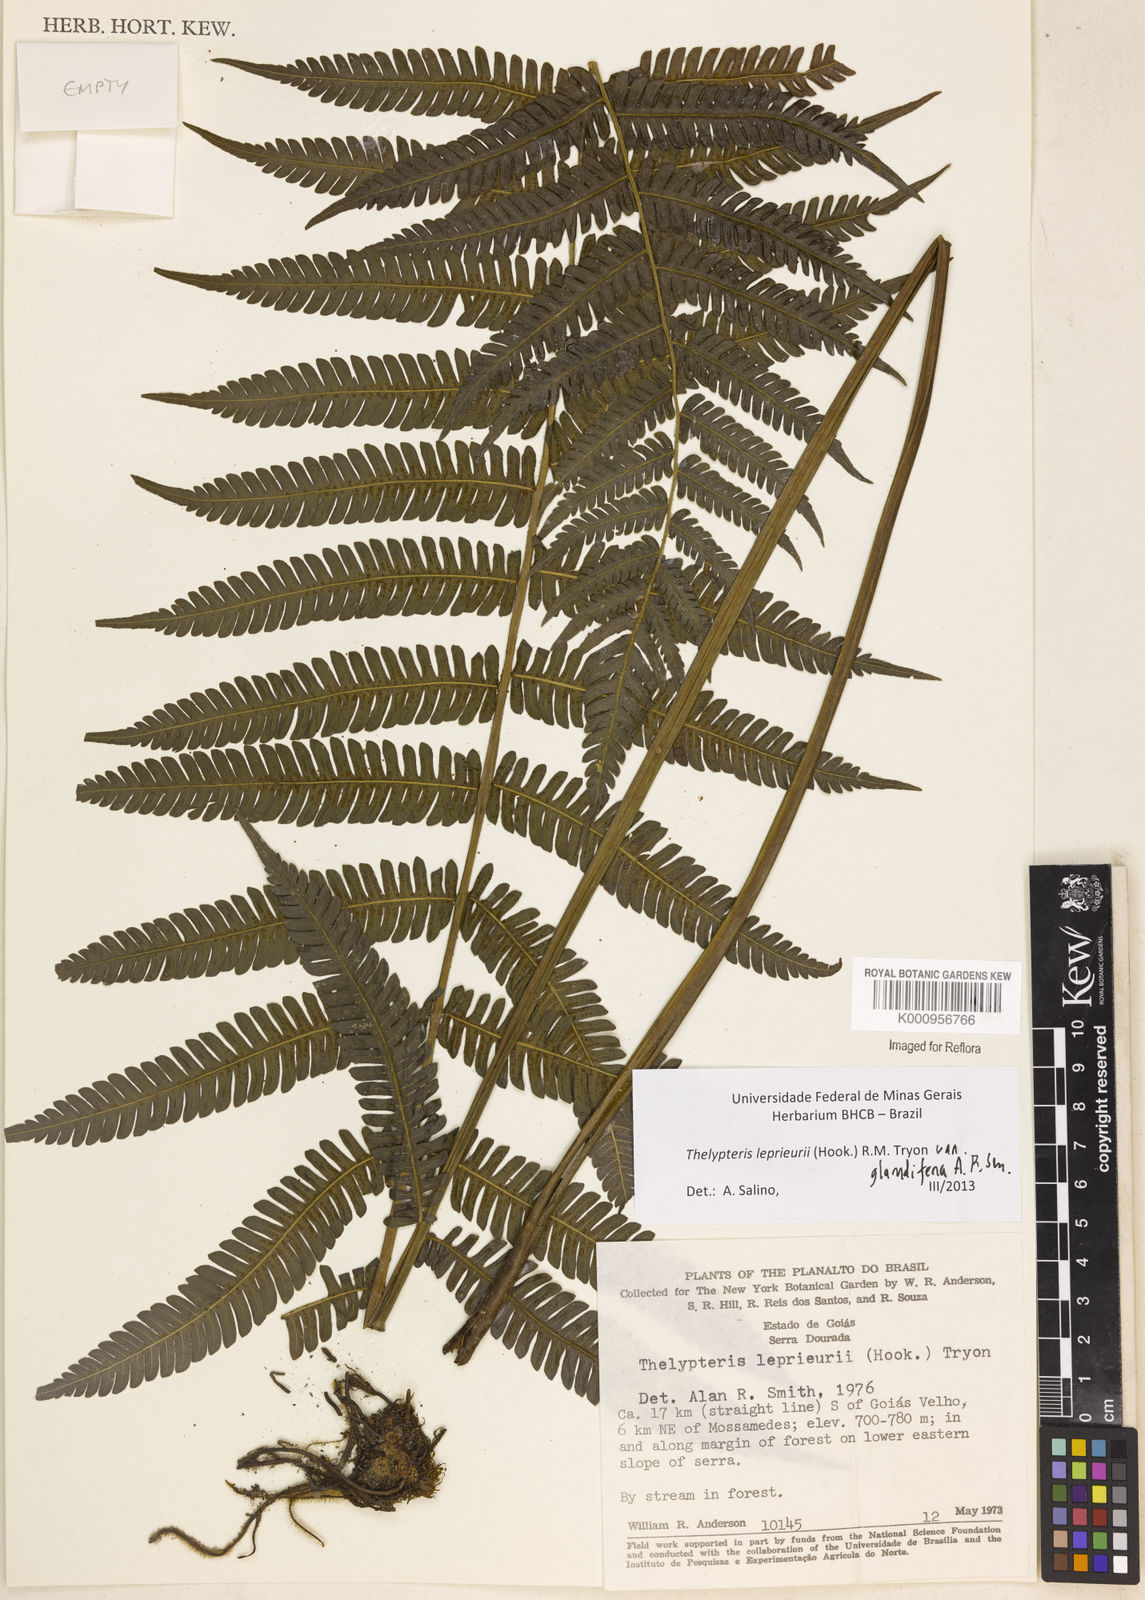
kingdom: Plantae
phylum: Tracheophyta
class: Polypodiopsida
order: Polypodiales
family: Thelypteridaceae
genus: Steiropteris
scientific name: Steiropteris leprieurii
